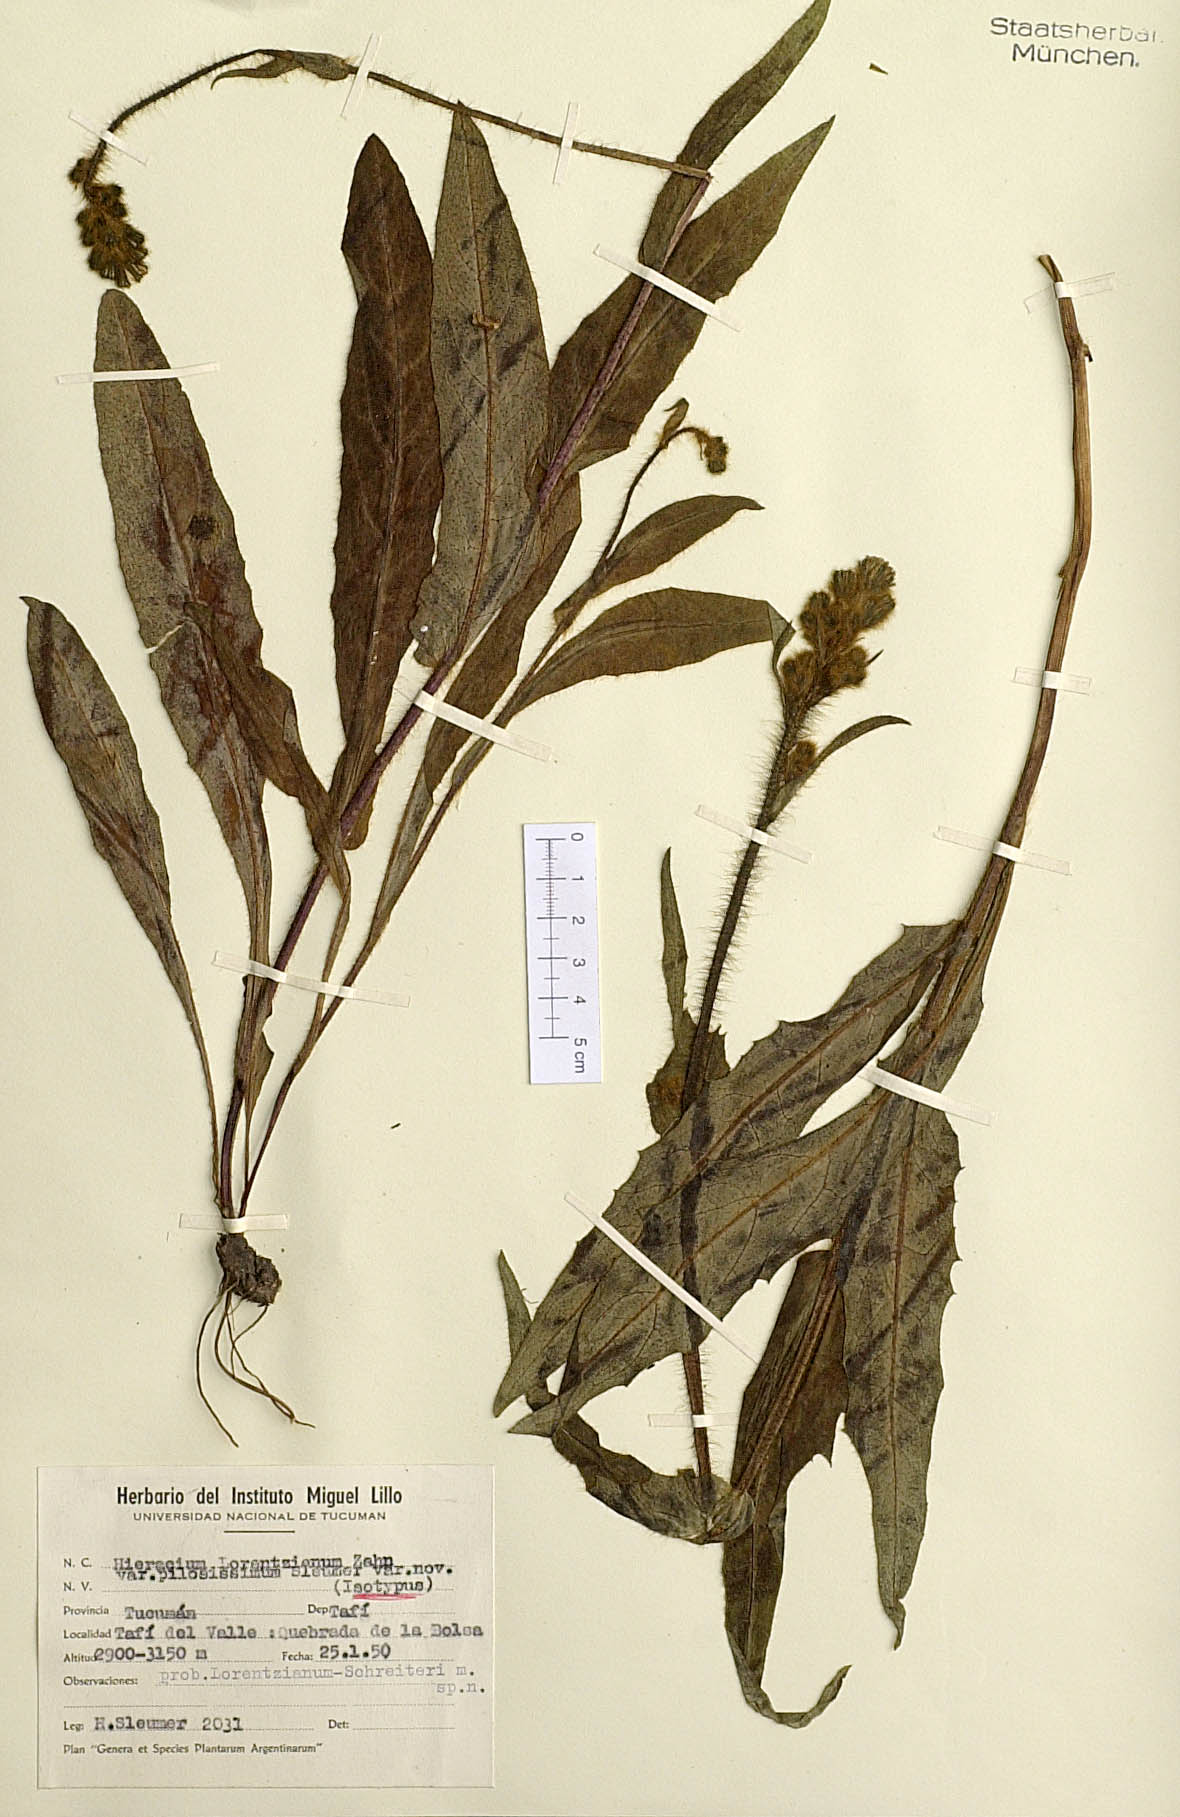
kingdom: Plantae
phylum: Tracheophyta
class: Magnoliopsida
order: Asterales
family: Asteraceae
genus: Hieracium
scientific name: Hieracium lorentzianum
